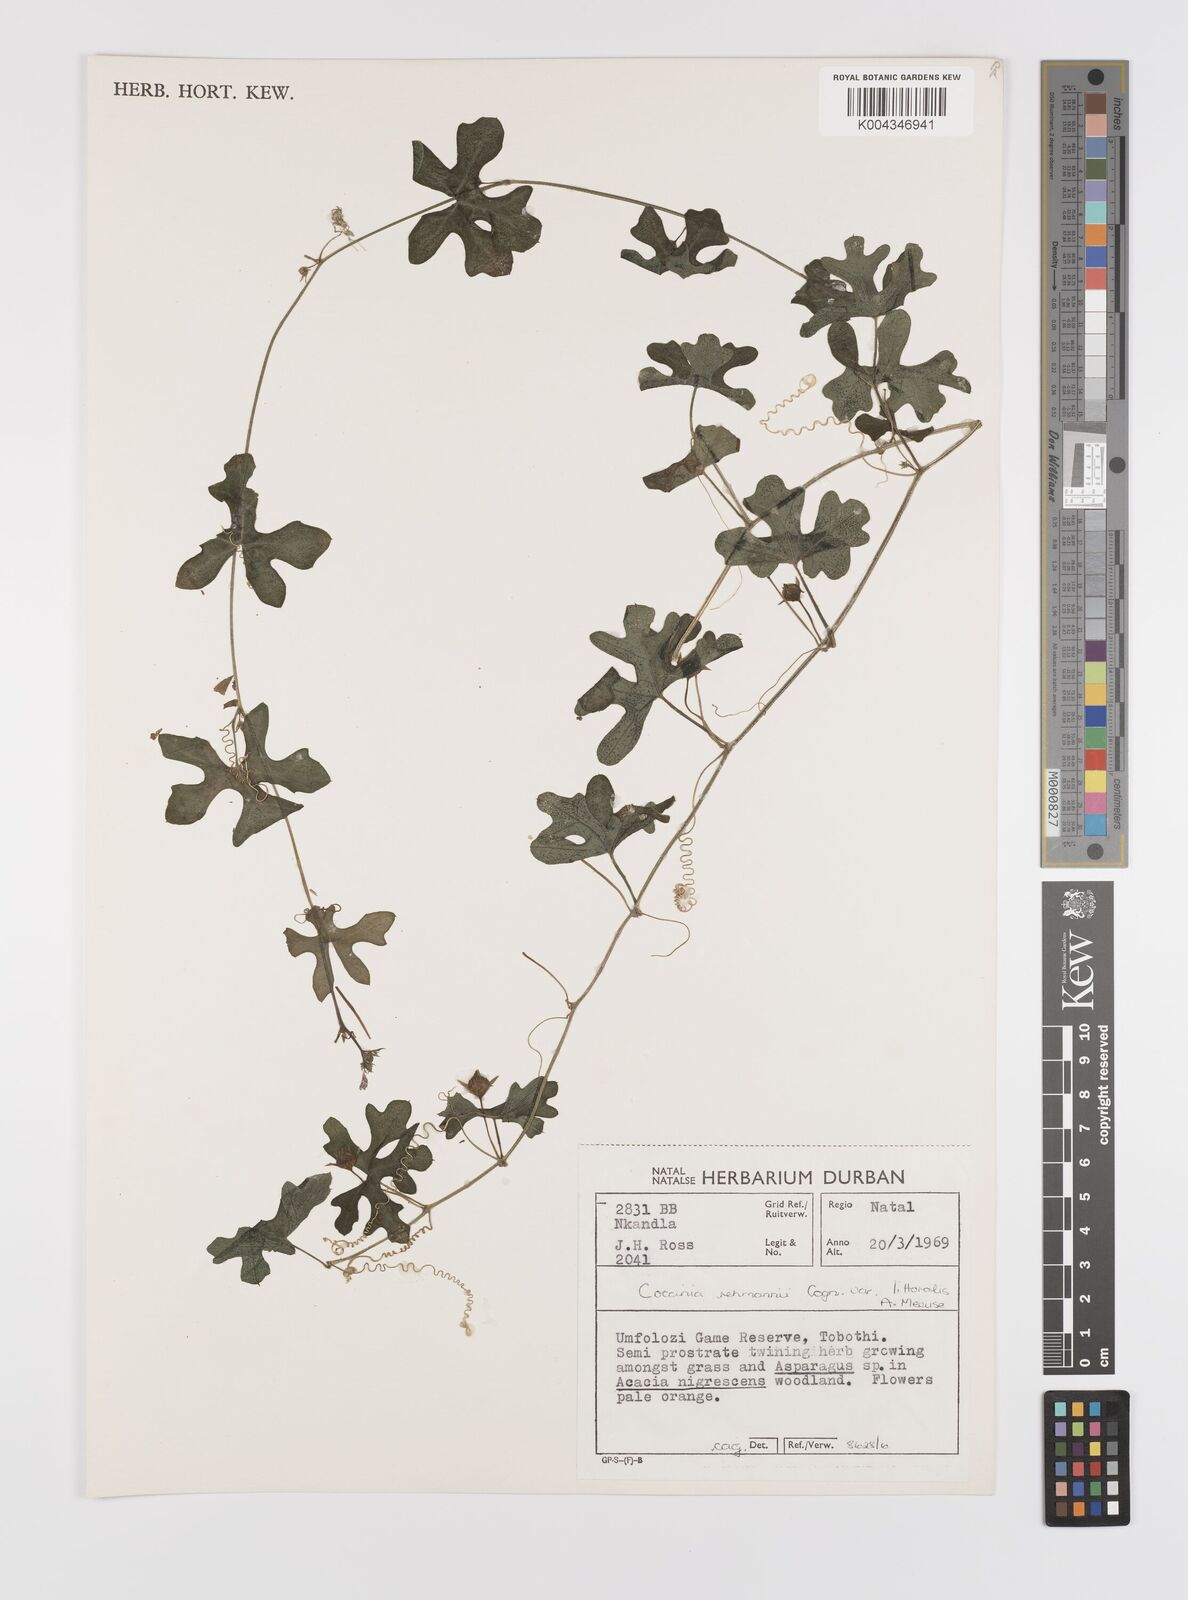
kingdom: Plantae
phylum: Tracheophyta
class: Magnoliopsida
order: Cucurbitales
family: Cucurbitaceae
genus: Coccinia
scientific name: Coccinia rehmannii
